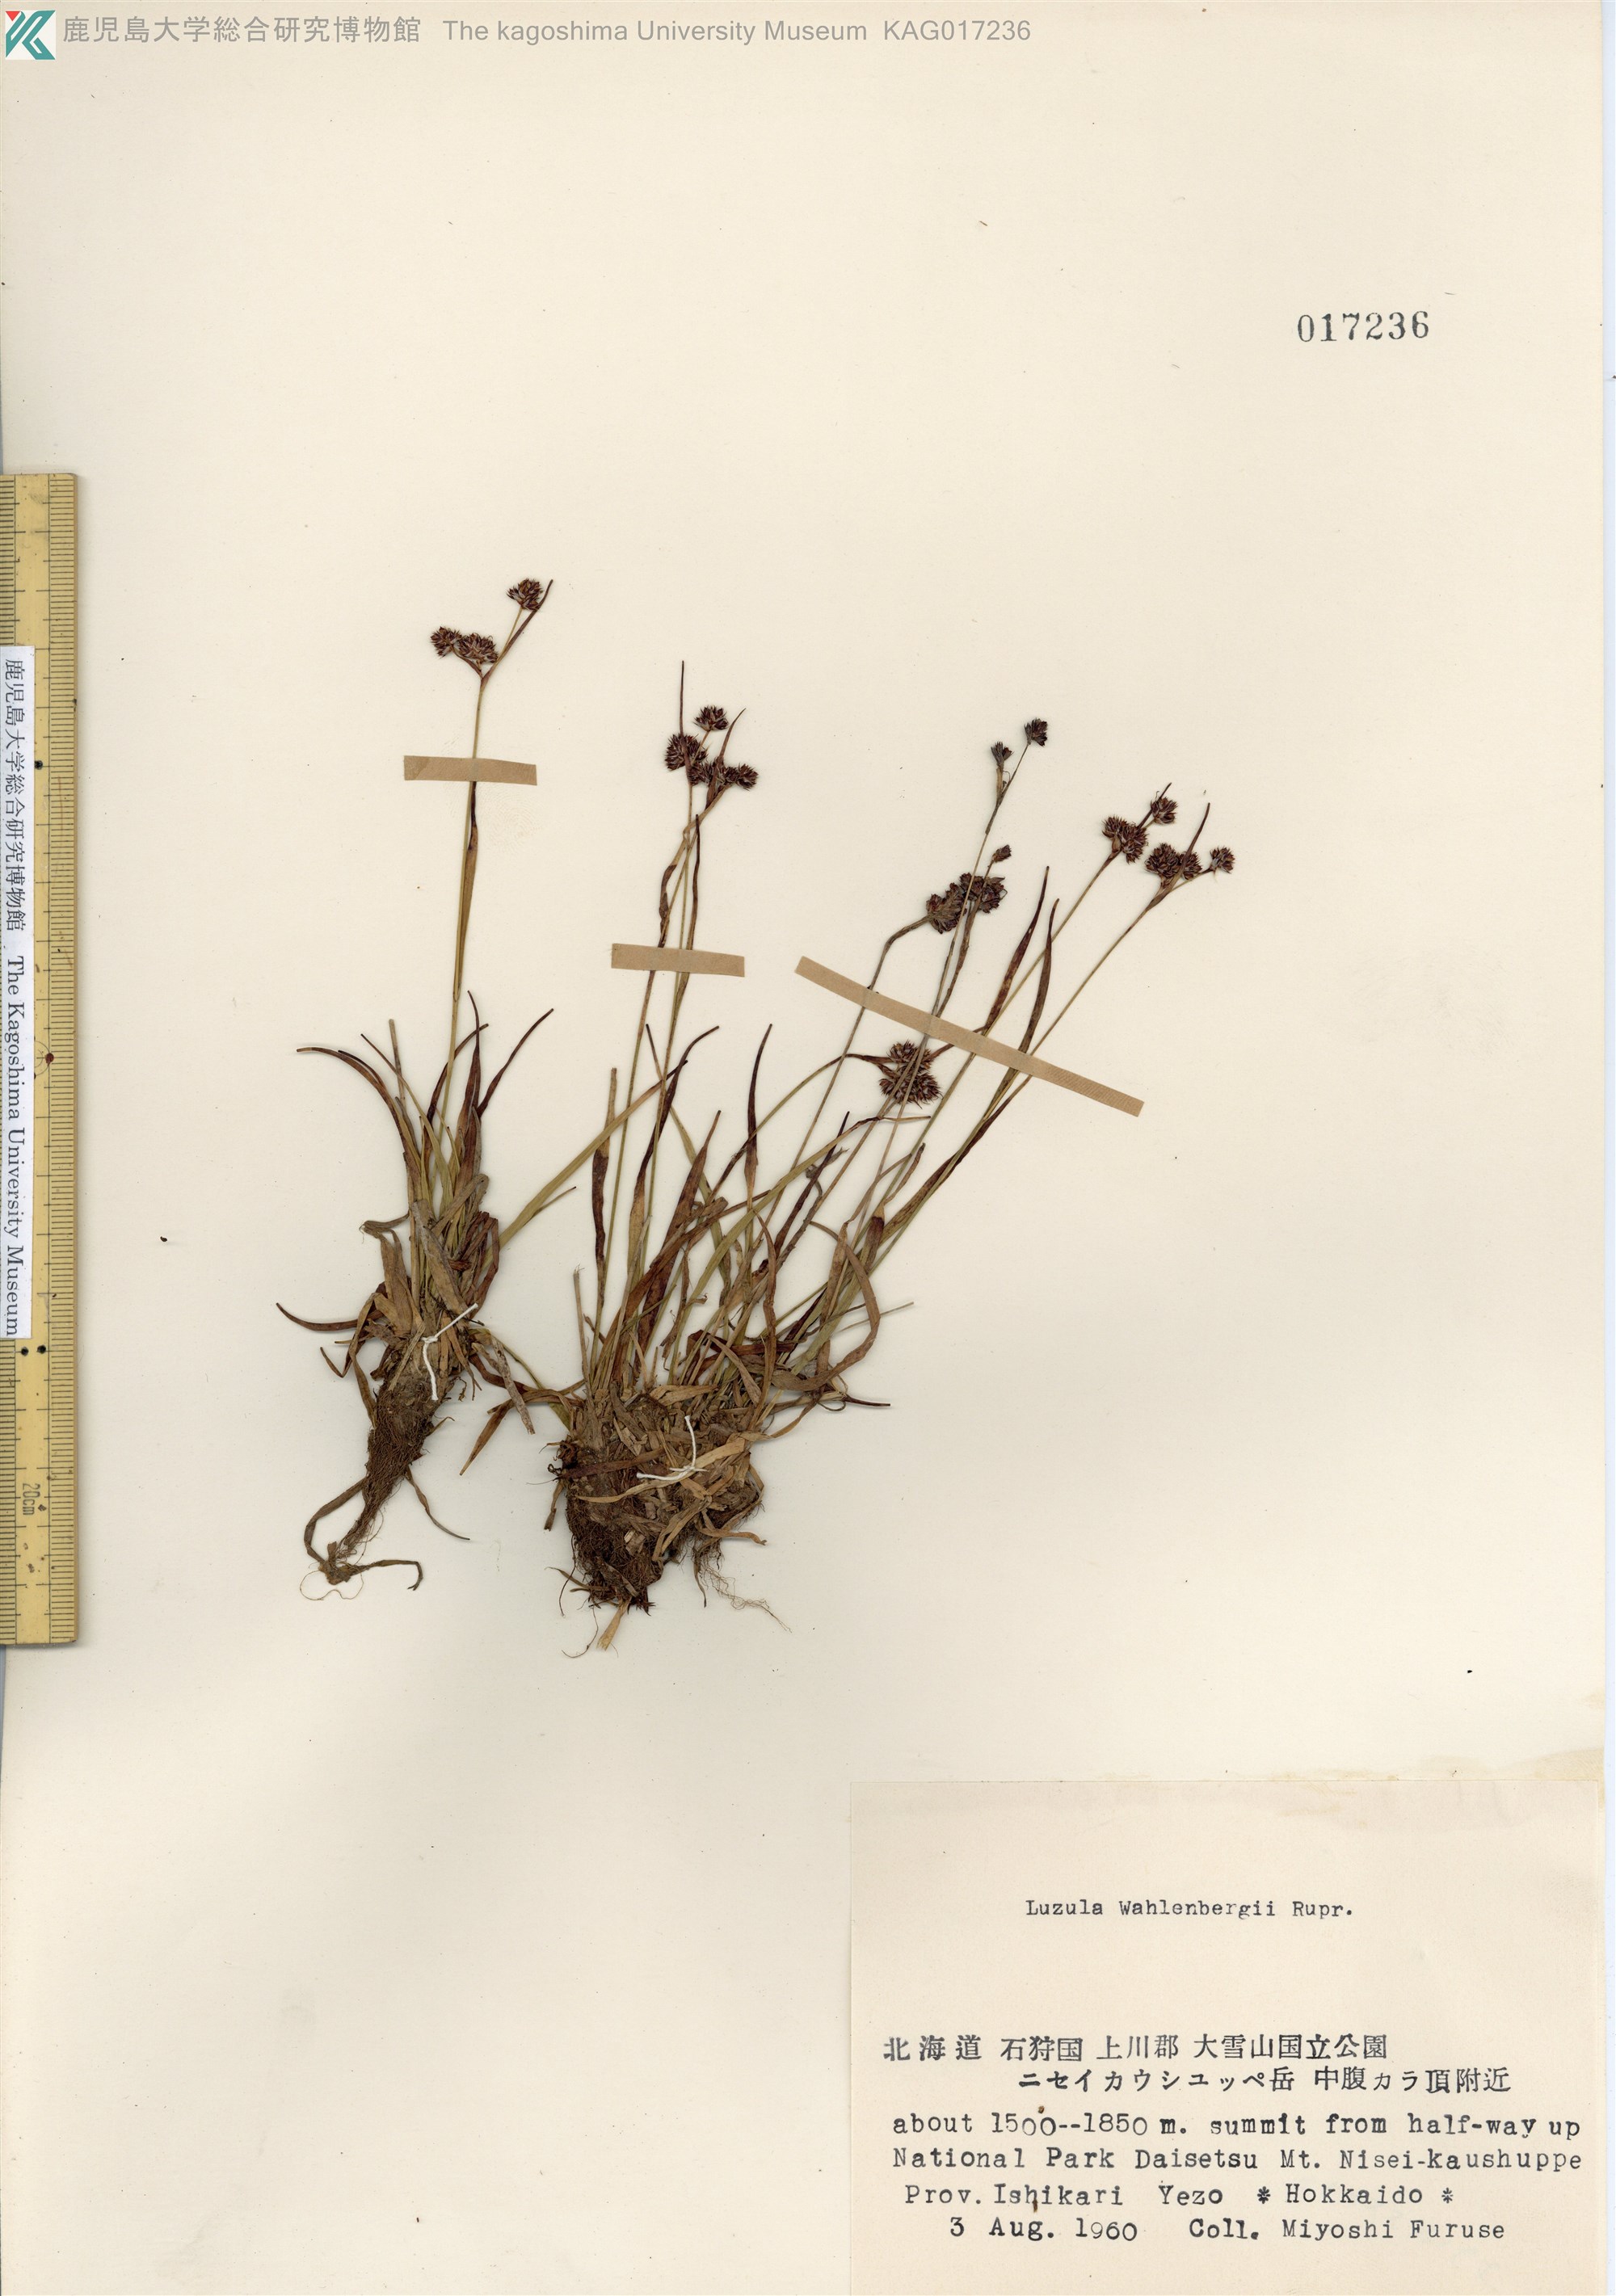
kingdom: Plantae
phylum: Tracheophyta
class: Liliopsida
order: Poales
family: Juncaceae
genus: Luzula
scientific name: Luzula arcuata
